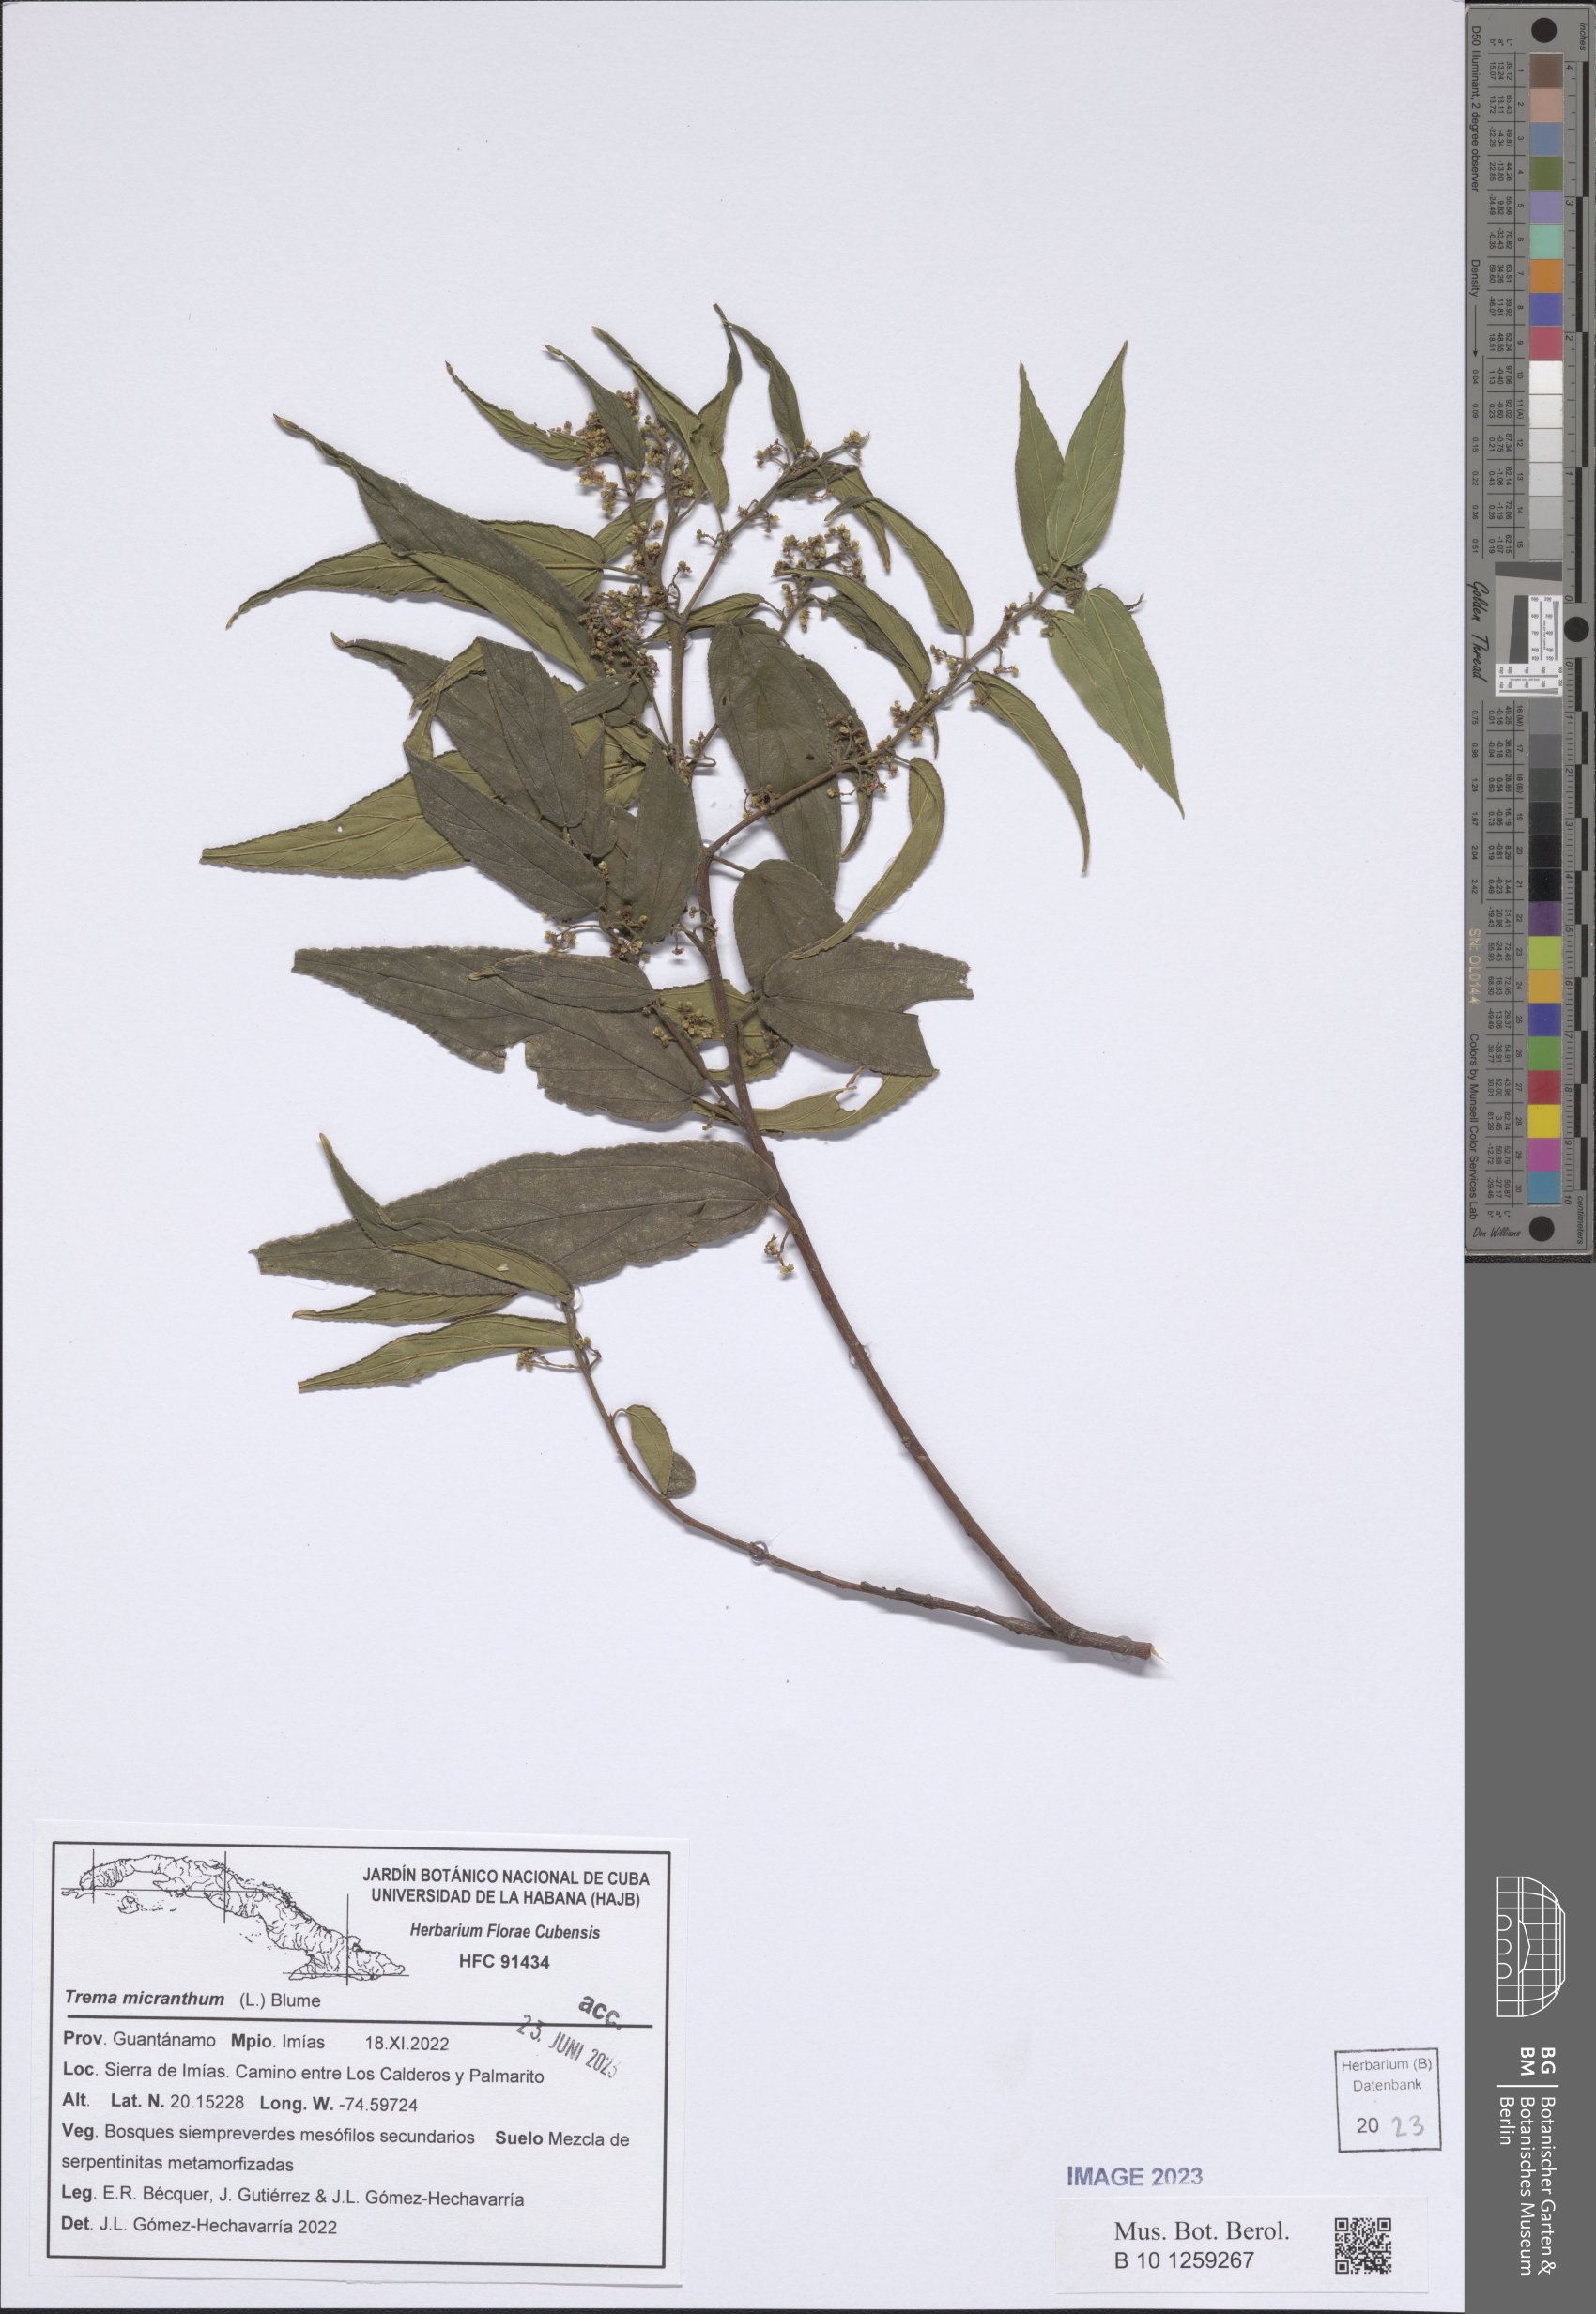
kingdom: Plantae
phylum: Tracheophyta
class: Magnoliopsida
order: Rosales
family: Cannabaceae
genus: Trema
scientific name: Trema micranthum
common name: Jamaican nettletree
